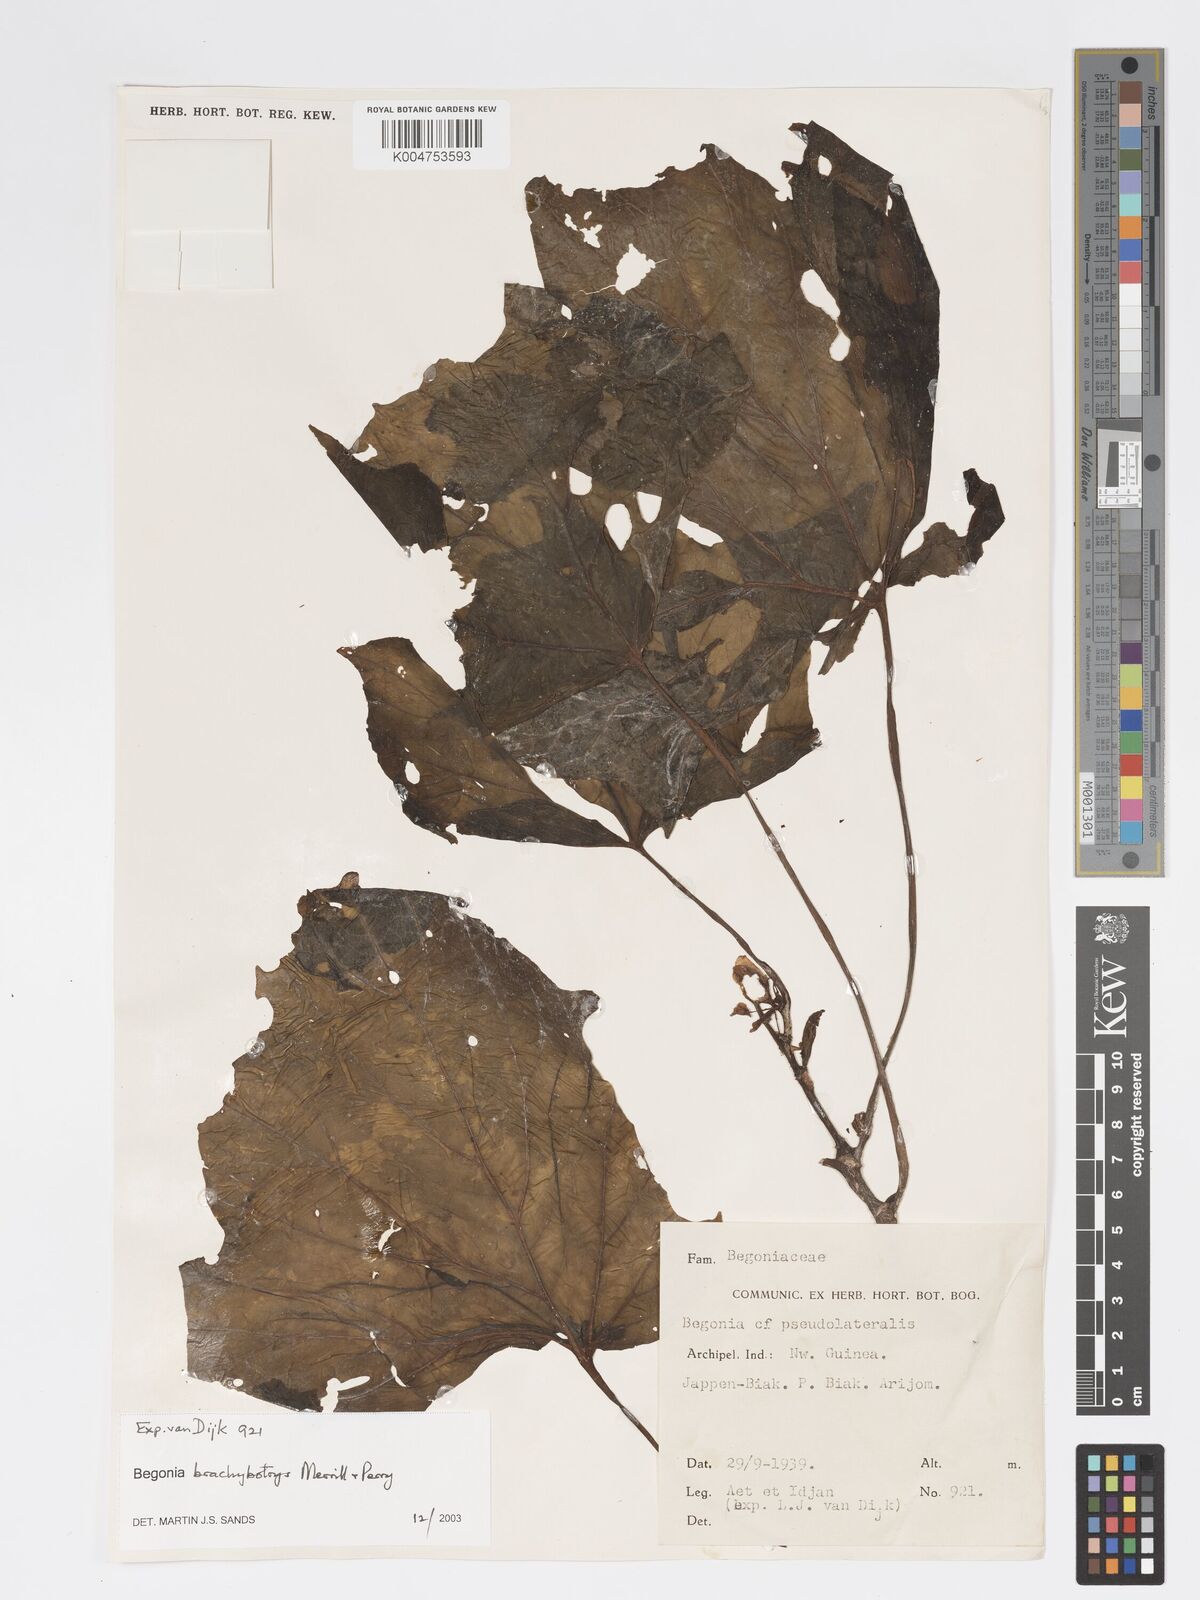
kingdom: Plantae
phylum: Tracheophyta
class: Magnoliopsida
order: Cucurbitales
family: Begoniaceae
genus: Begonia
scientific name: Begonia brachybotrys
